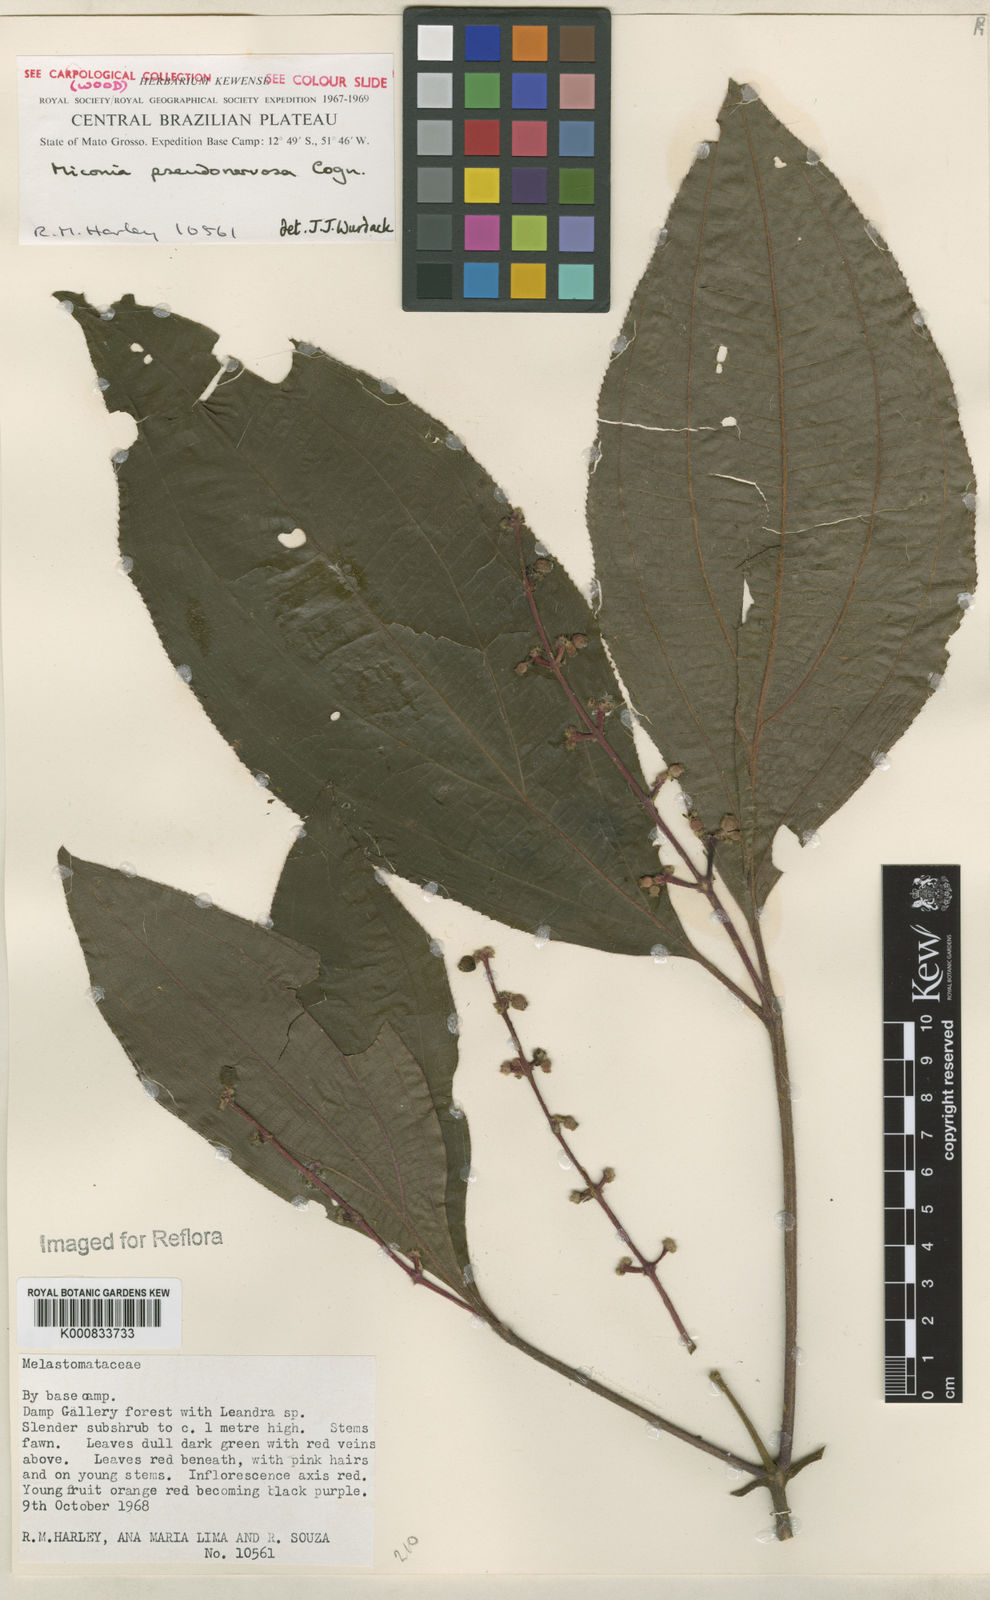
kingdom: Plantae
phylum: Tracheophyta
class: Magnoliopsida
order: Myrtales
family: Melastomataceae
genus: Miconia
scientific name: Miconia pseudonervosa
